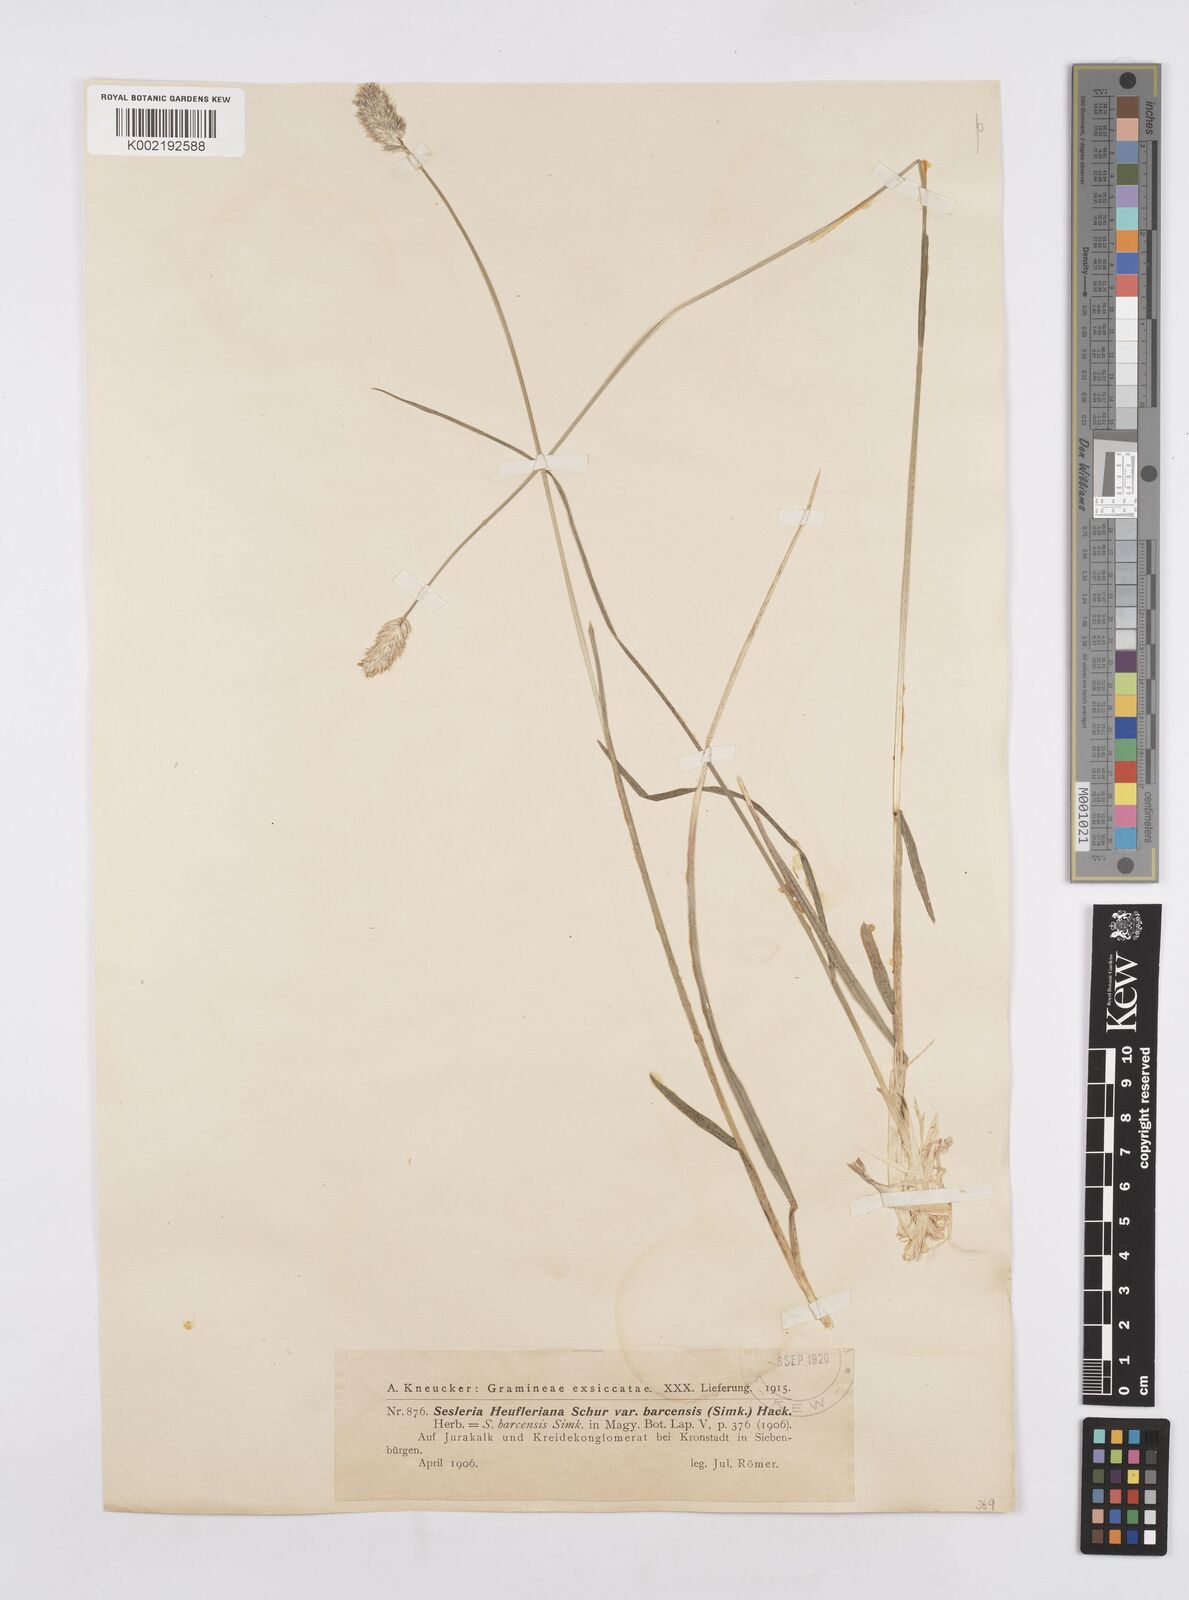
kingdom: Plantae
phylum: Tracheophyta
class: Liliopsida
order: Poales
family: Poaceae
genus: Sesleria
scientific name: Sesleria heufleriana
